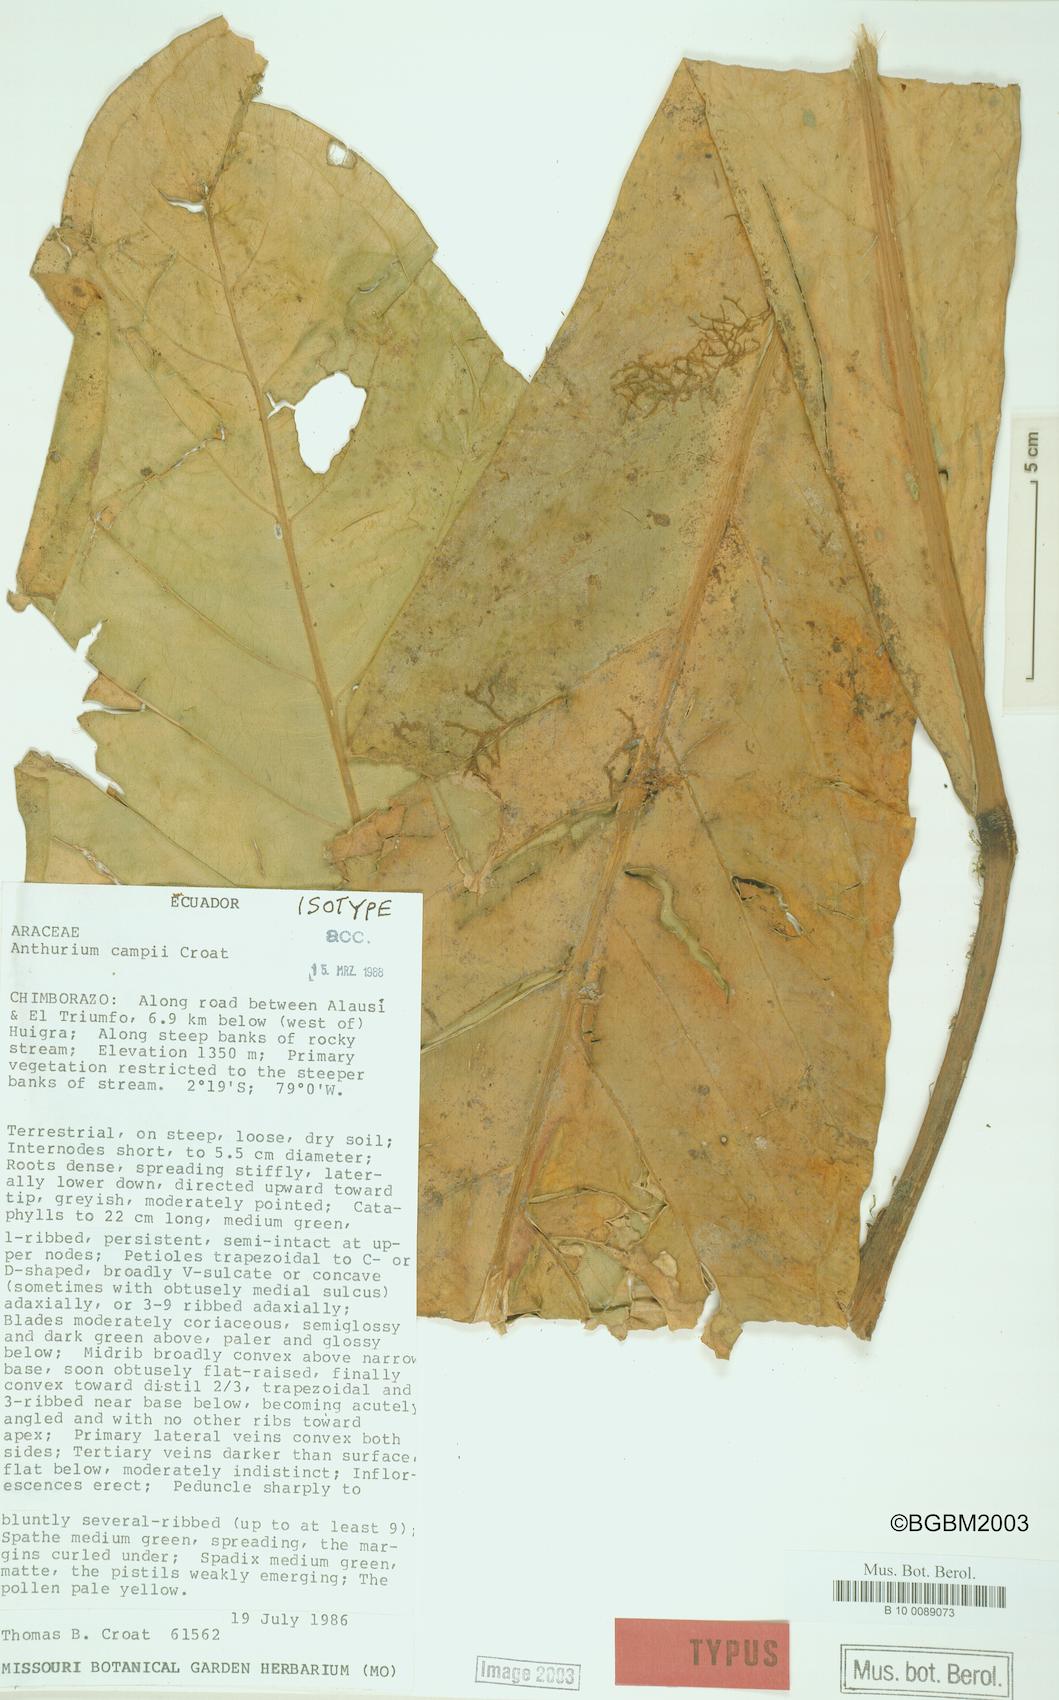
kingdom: Plantae
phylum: Tracheophyta
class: Liliopsida
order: Alismatales
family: Araceae
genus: Anthurium
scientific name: Anthurium campii
